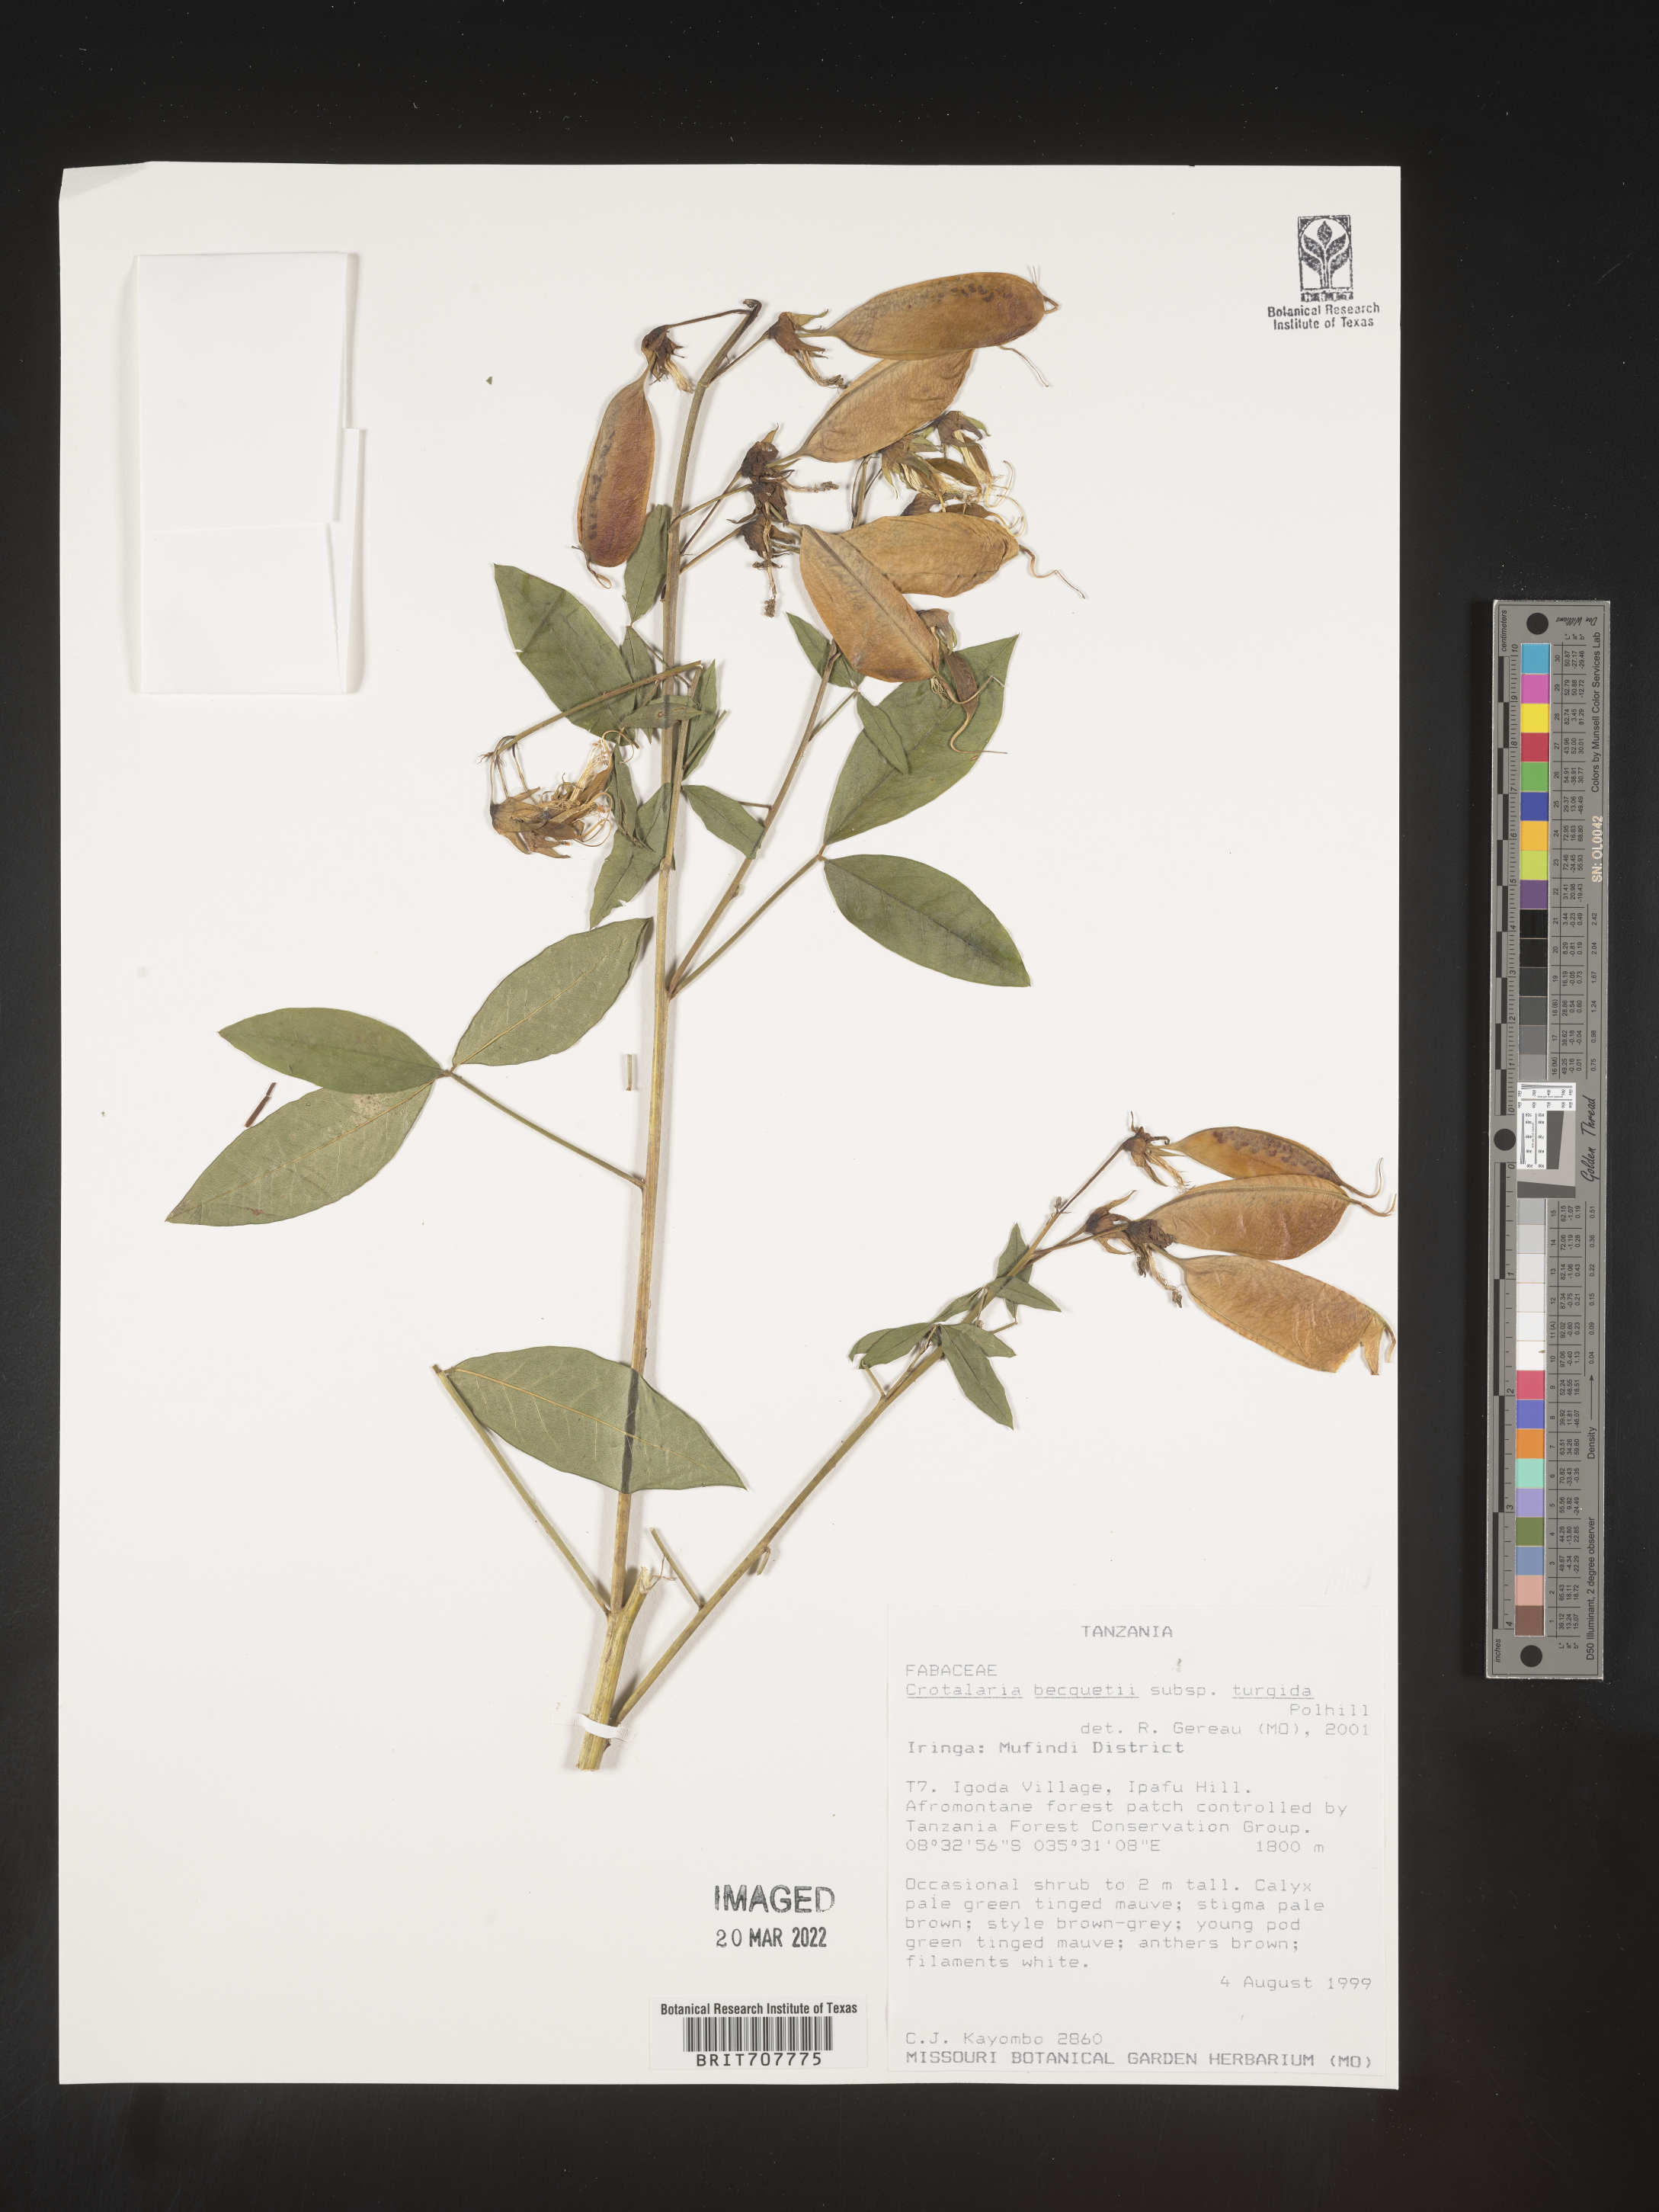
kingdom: Plantae
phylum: Tracheophyta
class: Magnoliopsida
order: Fabales
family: Fabaceae
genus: Crotalaria
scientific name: Crotalaria
